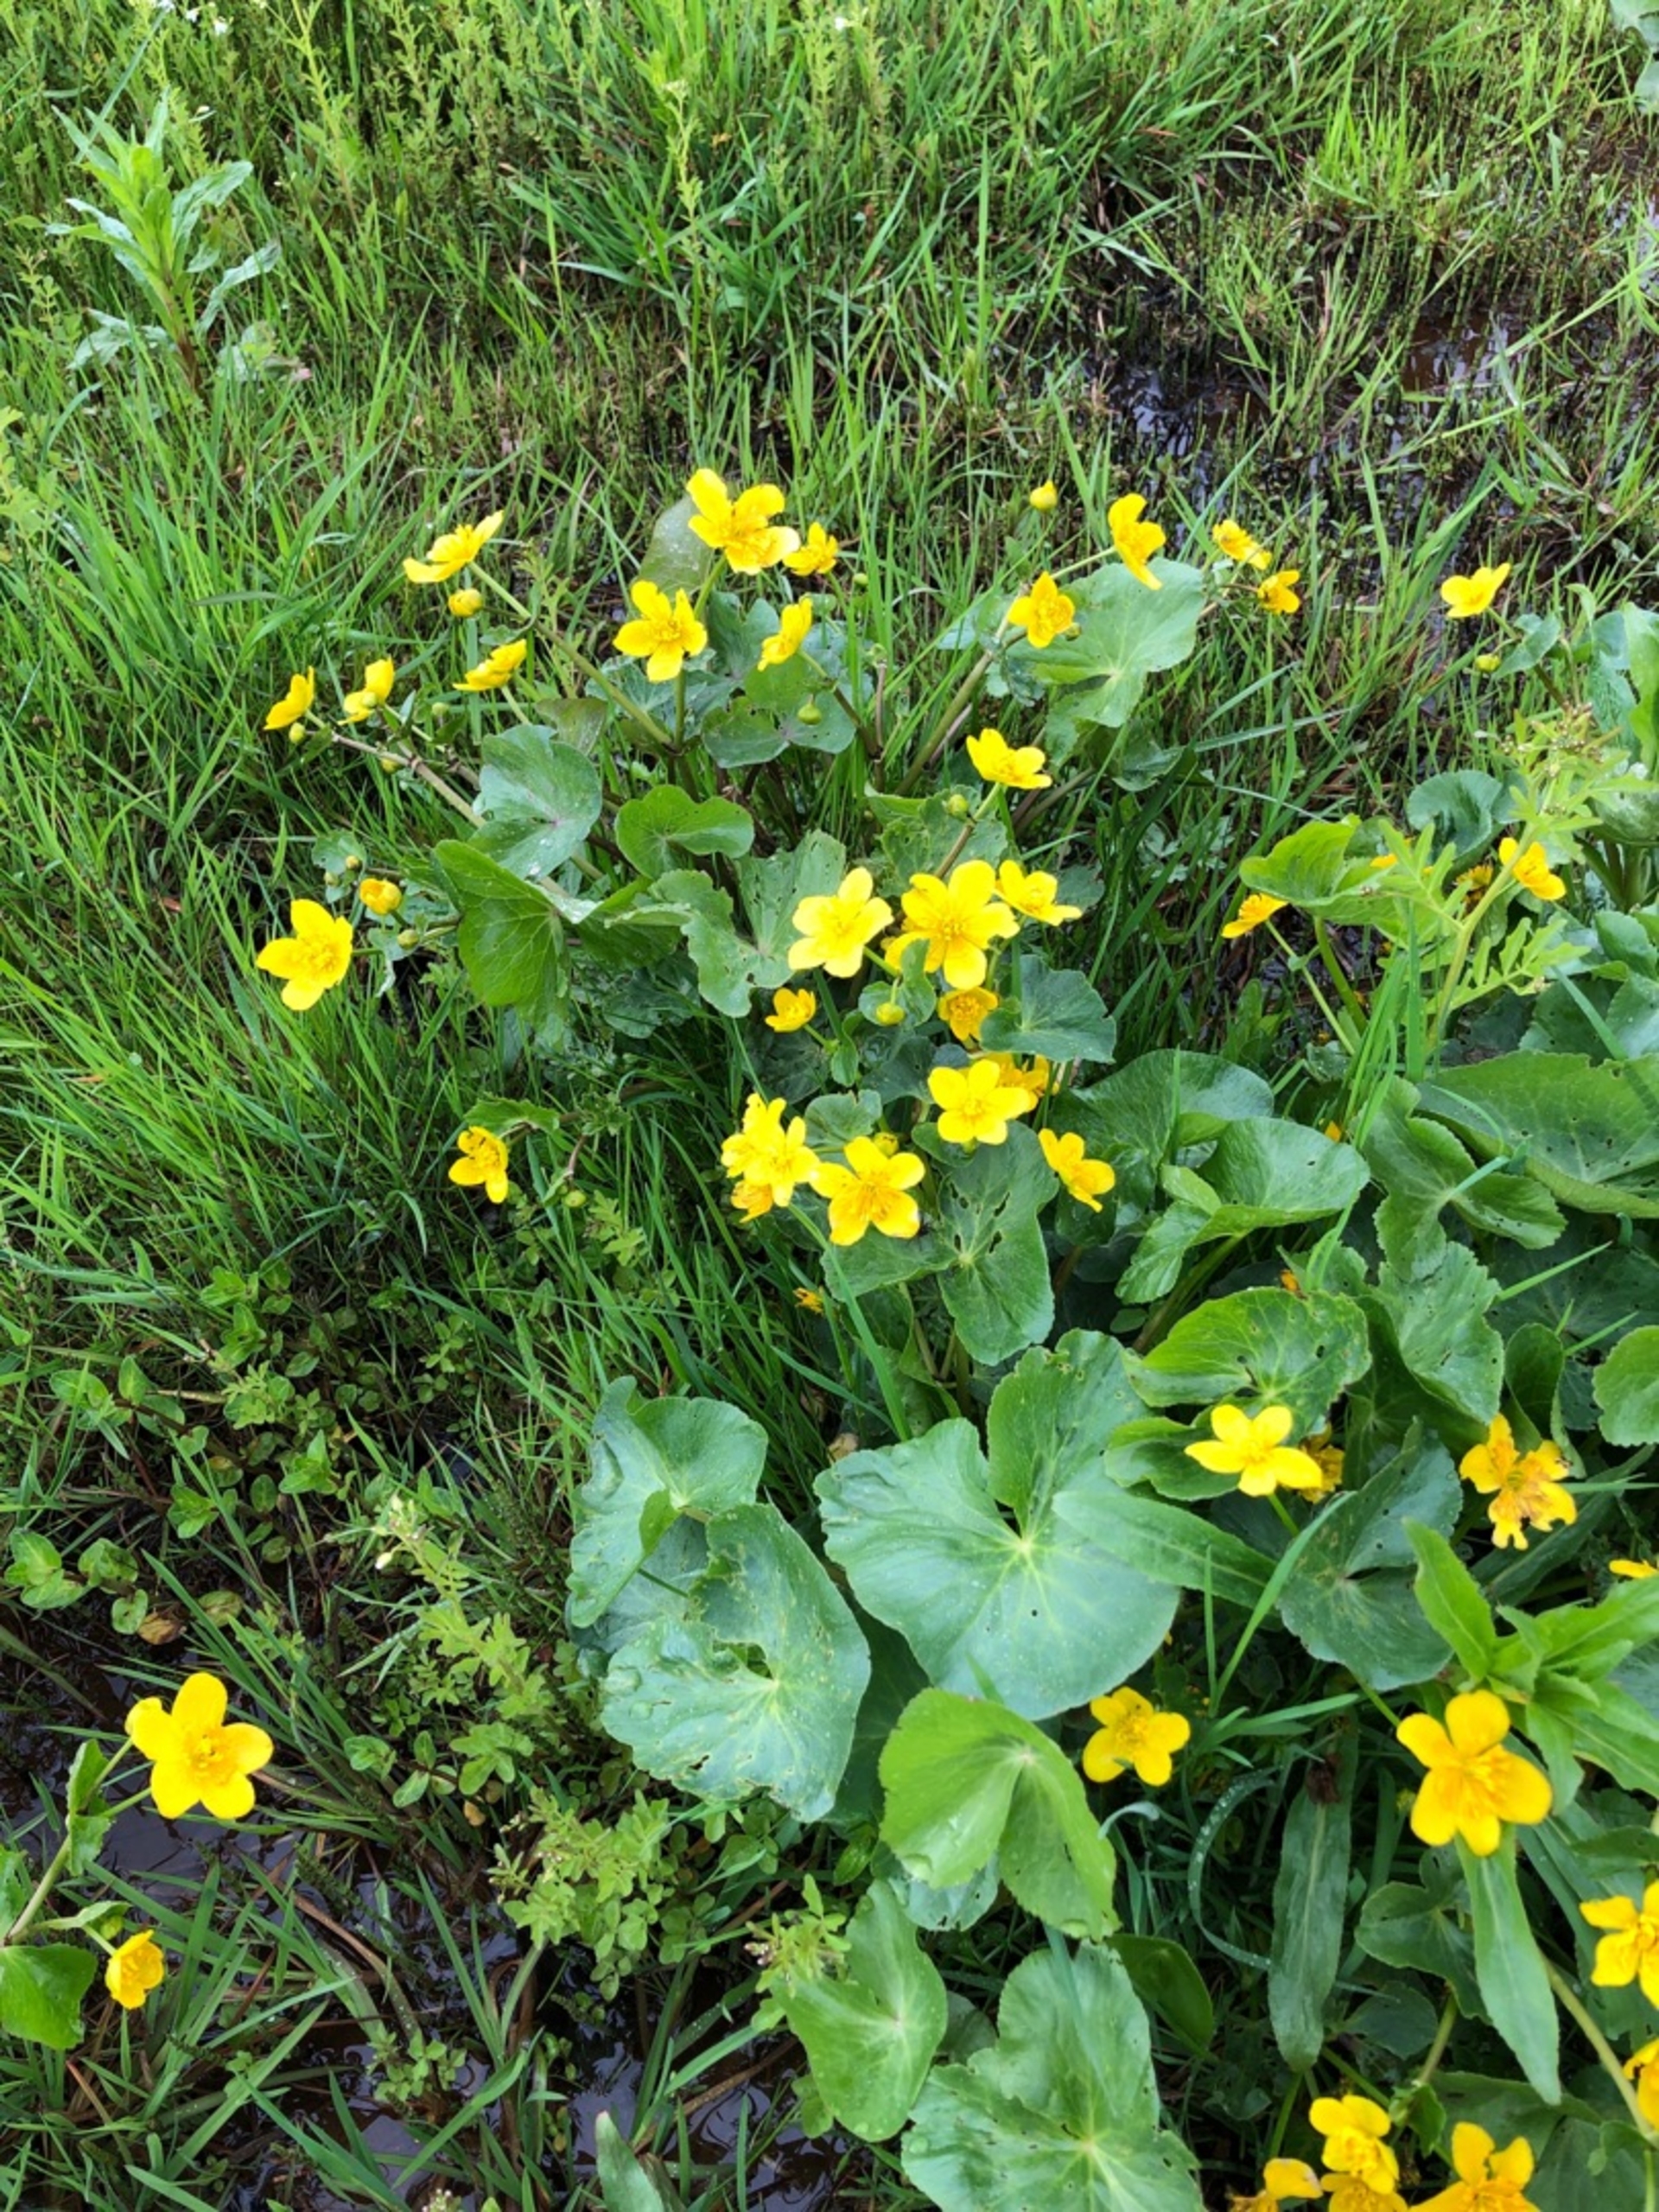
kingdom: Plantae
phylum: Tracheophyta
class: Magnoliopsida
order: Ranunculales
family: Ranunculaceae
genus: Caltha
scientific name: Caltha palustris
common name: Eng-kabbeleje
